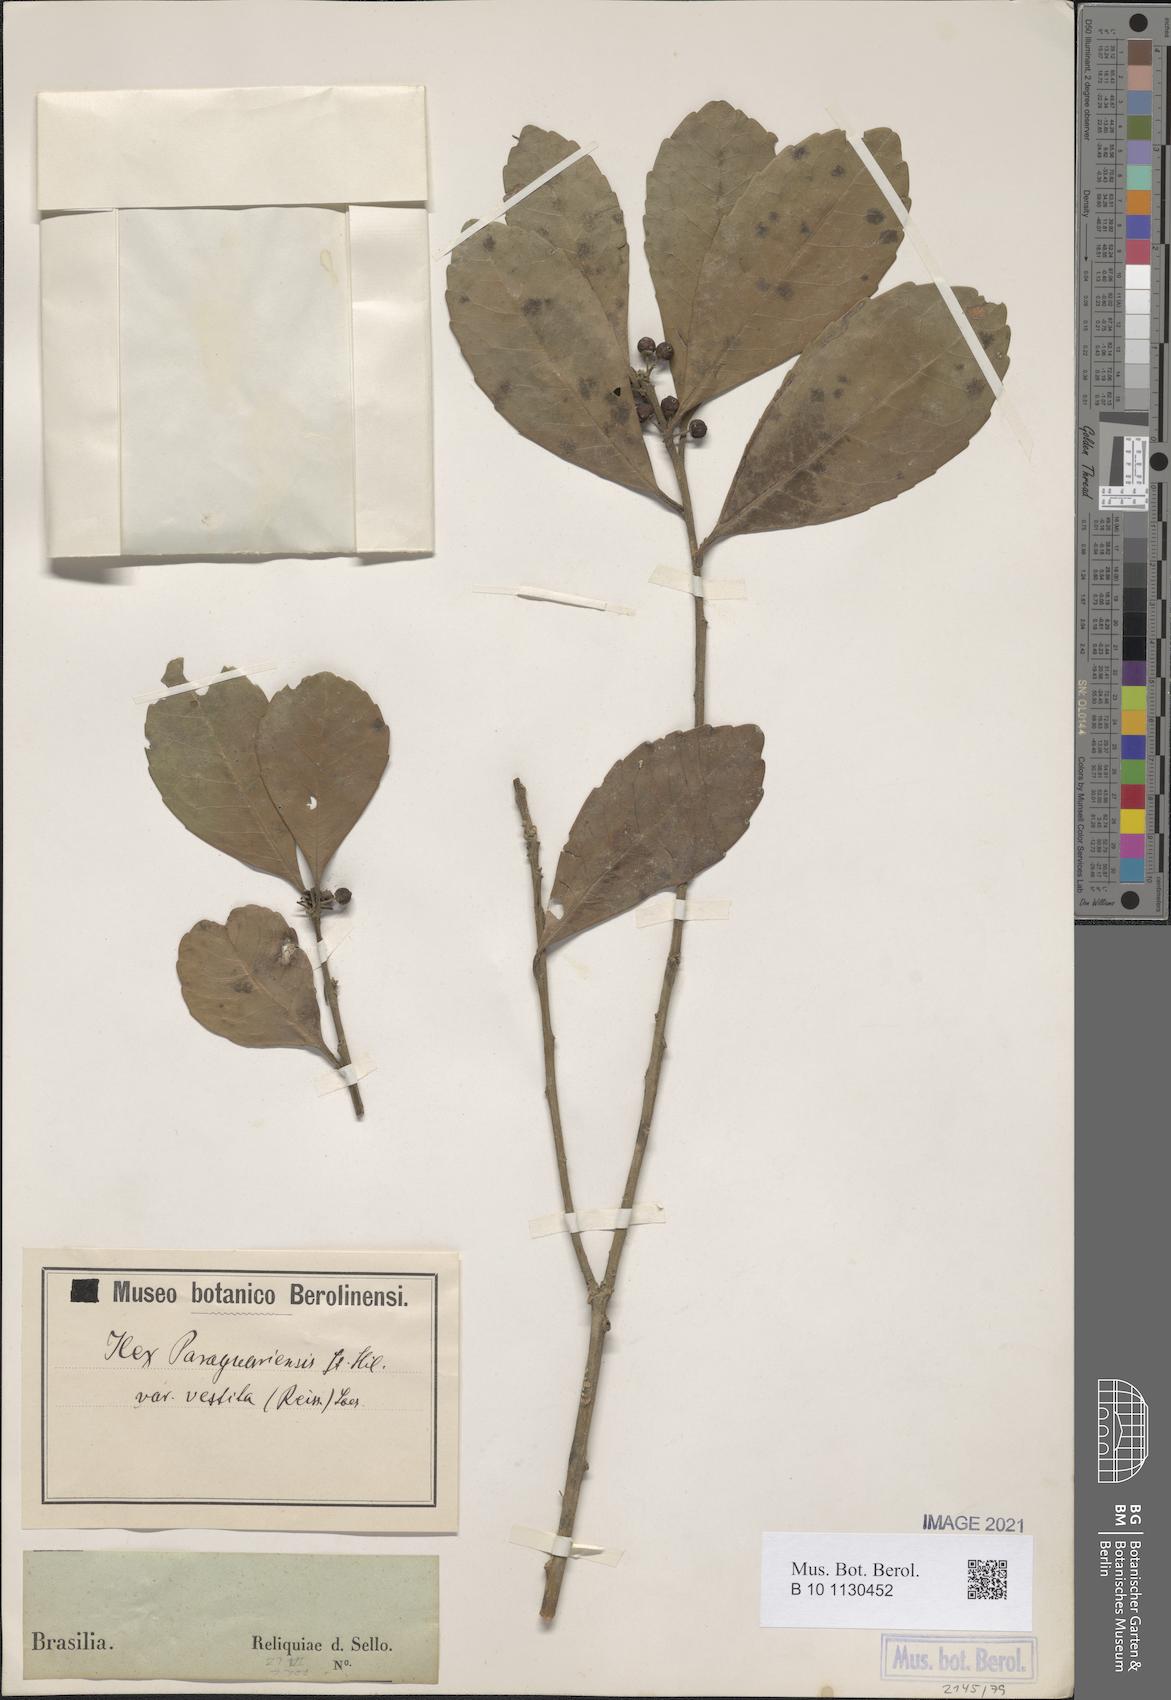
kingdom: Plantae
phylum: Tracheophyta
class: Magnoliopsida
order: Aquifoliales
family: Aquifoliaceae
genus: Ilex
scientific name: Ilex paraguariensis
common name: Paraguay tea
